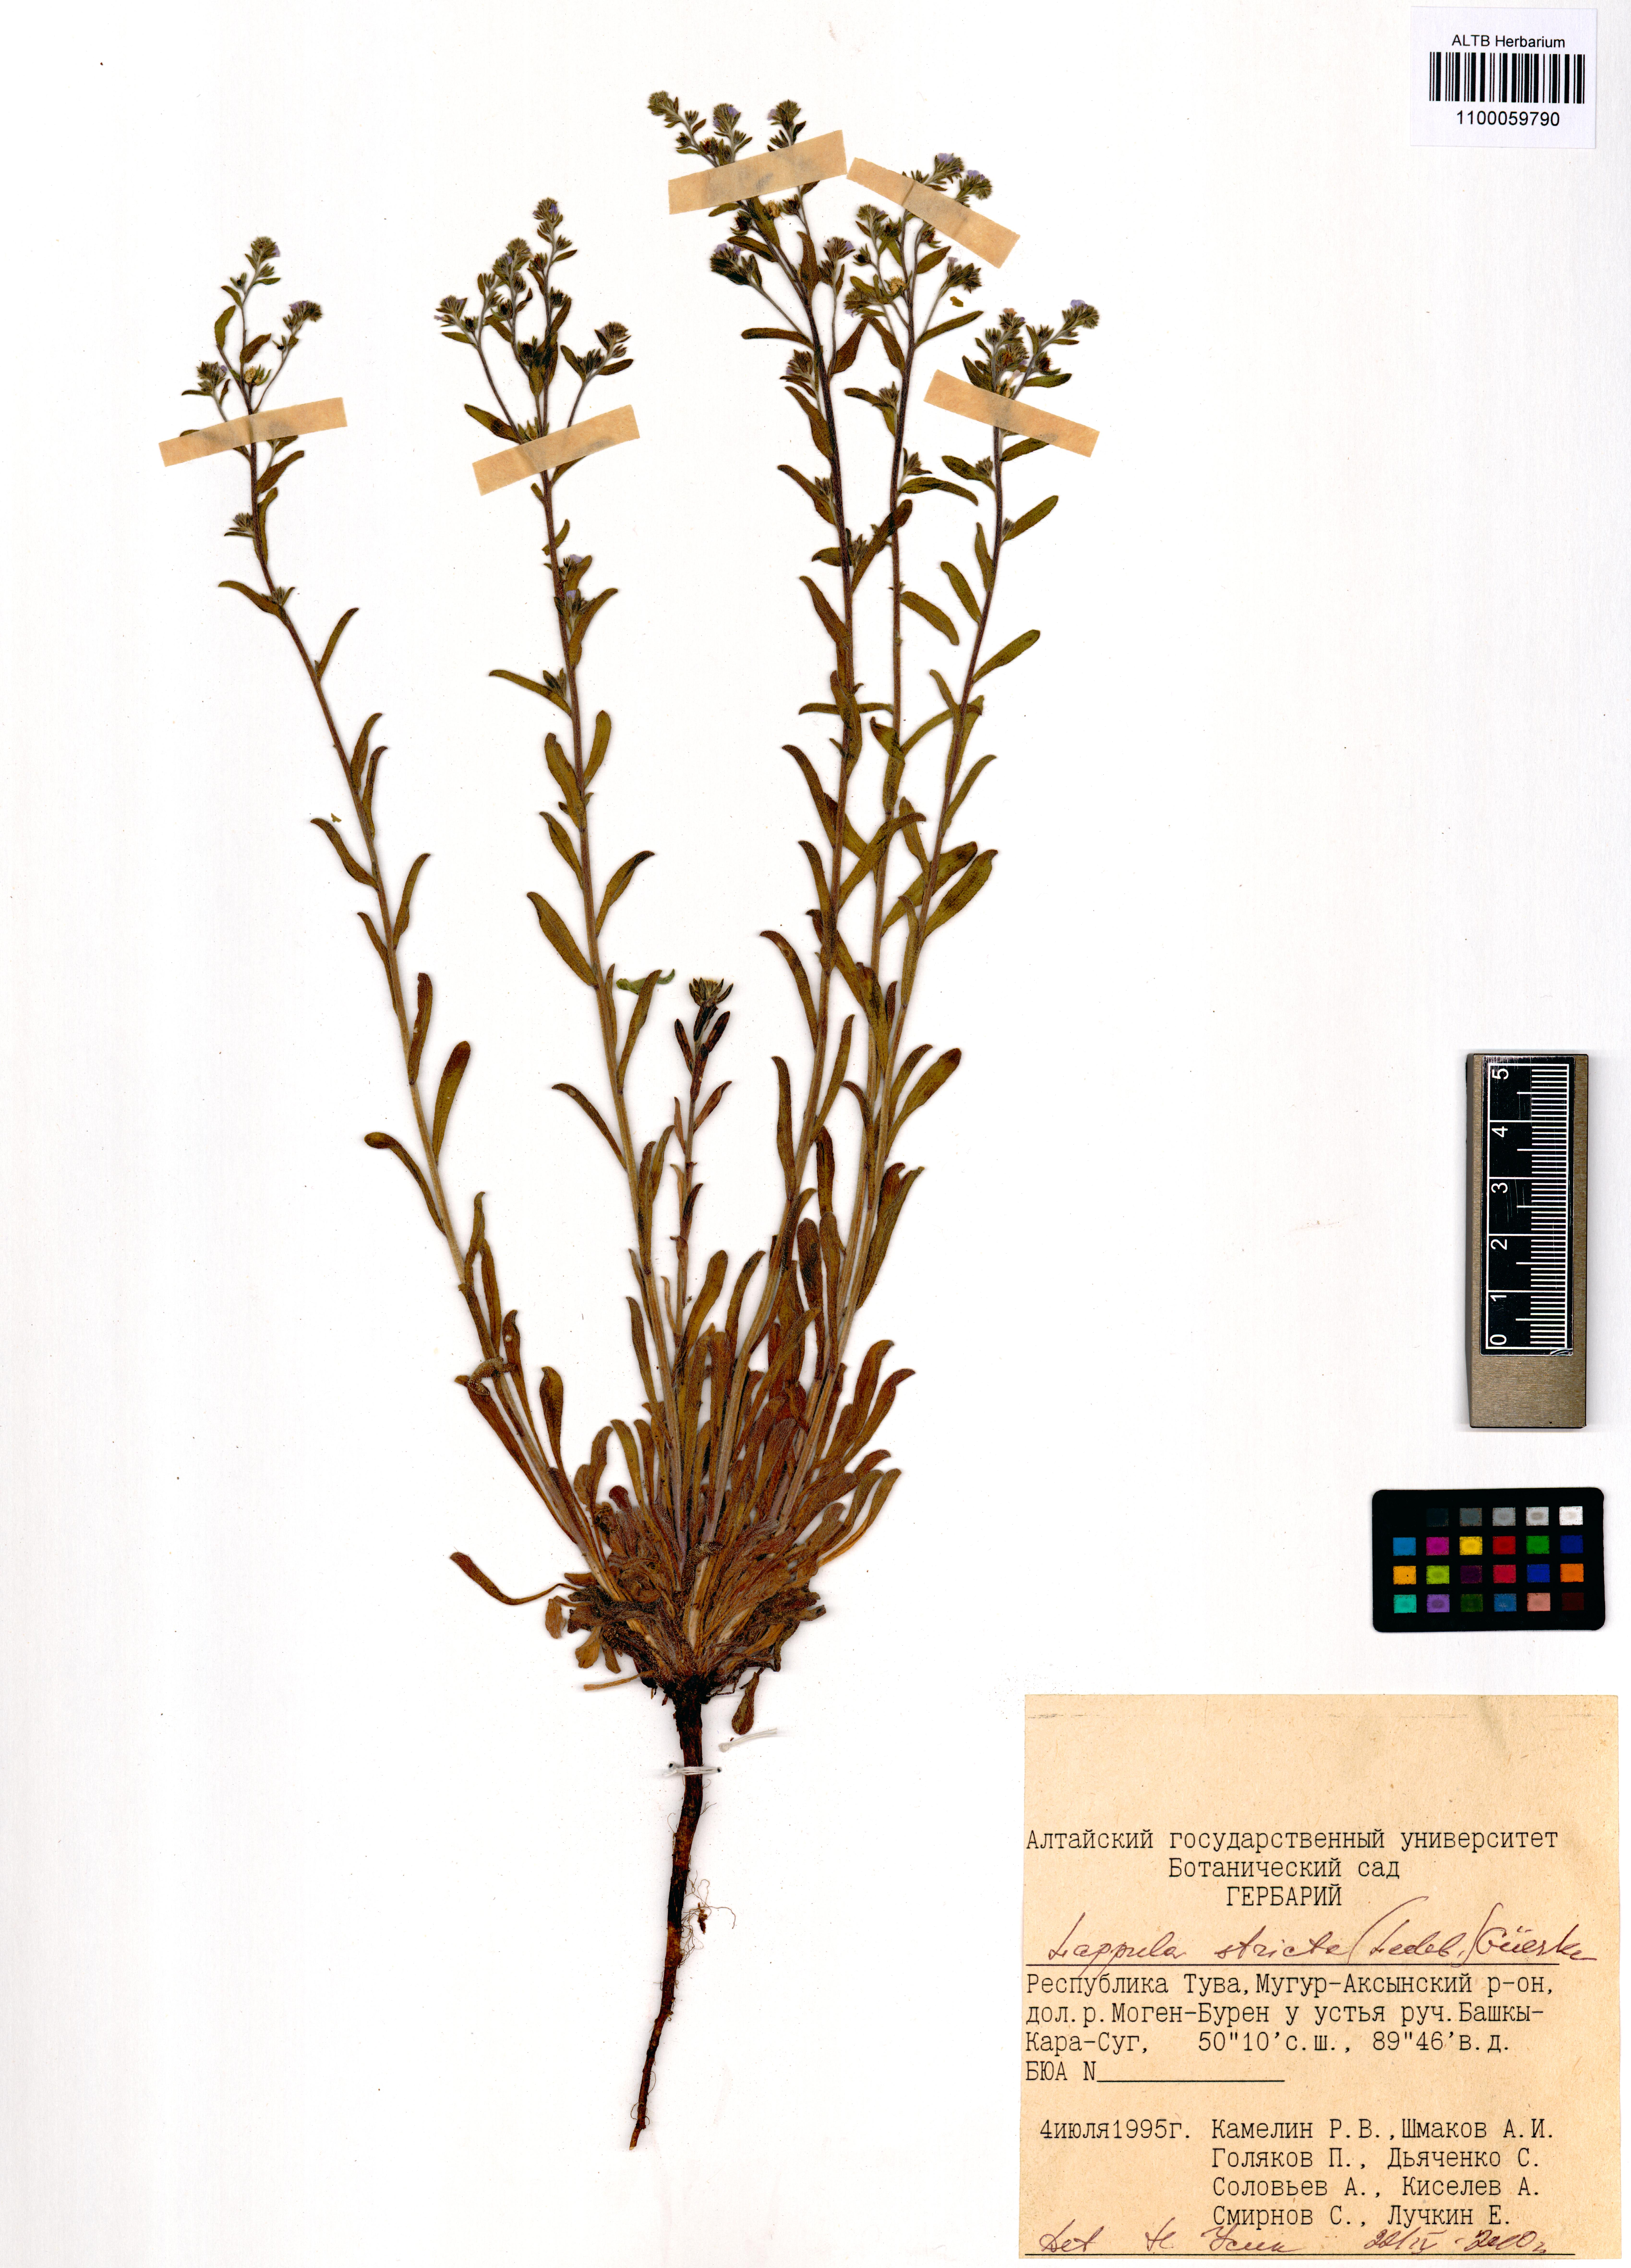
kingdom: Plantae
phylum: Tracheophyta
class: Magnoliopsida
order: Boraginales
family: Boraginaceae
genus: Lappula
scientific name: Lappula stricta
